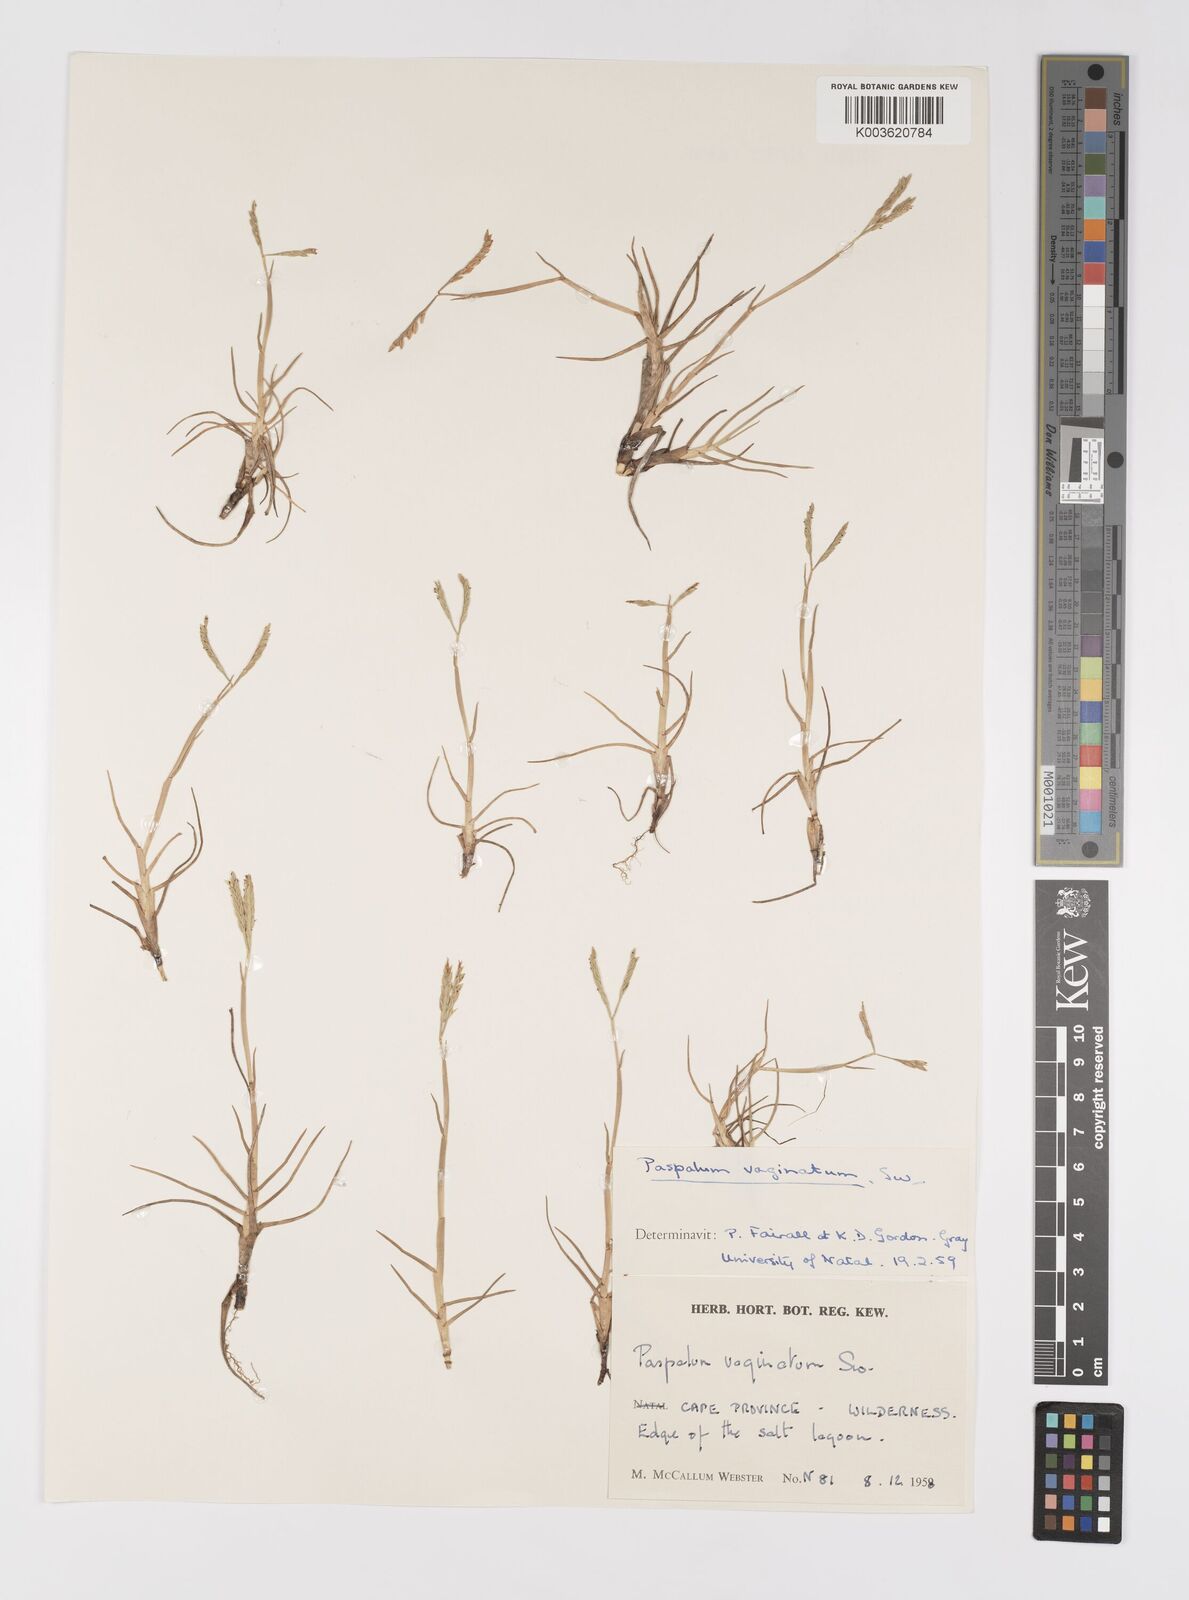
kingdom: Plantae
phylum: Tracheophyta
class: Liliopsida
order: Poales
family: Poaceae
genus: Paspalum
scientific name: Paspalum vaginatum
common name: Seashore paspalum
